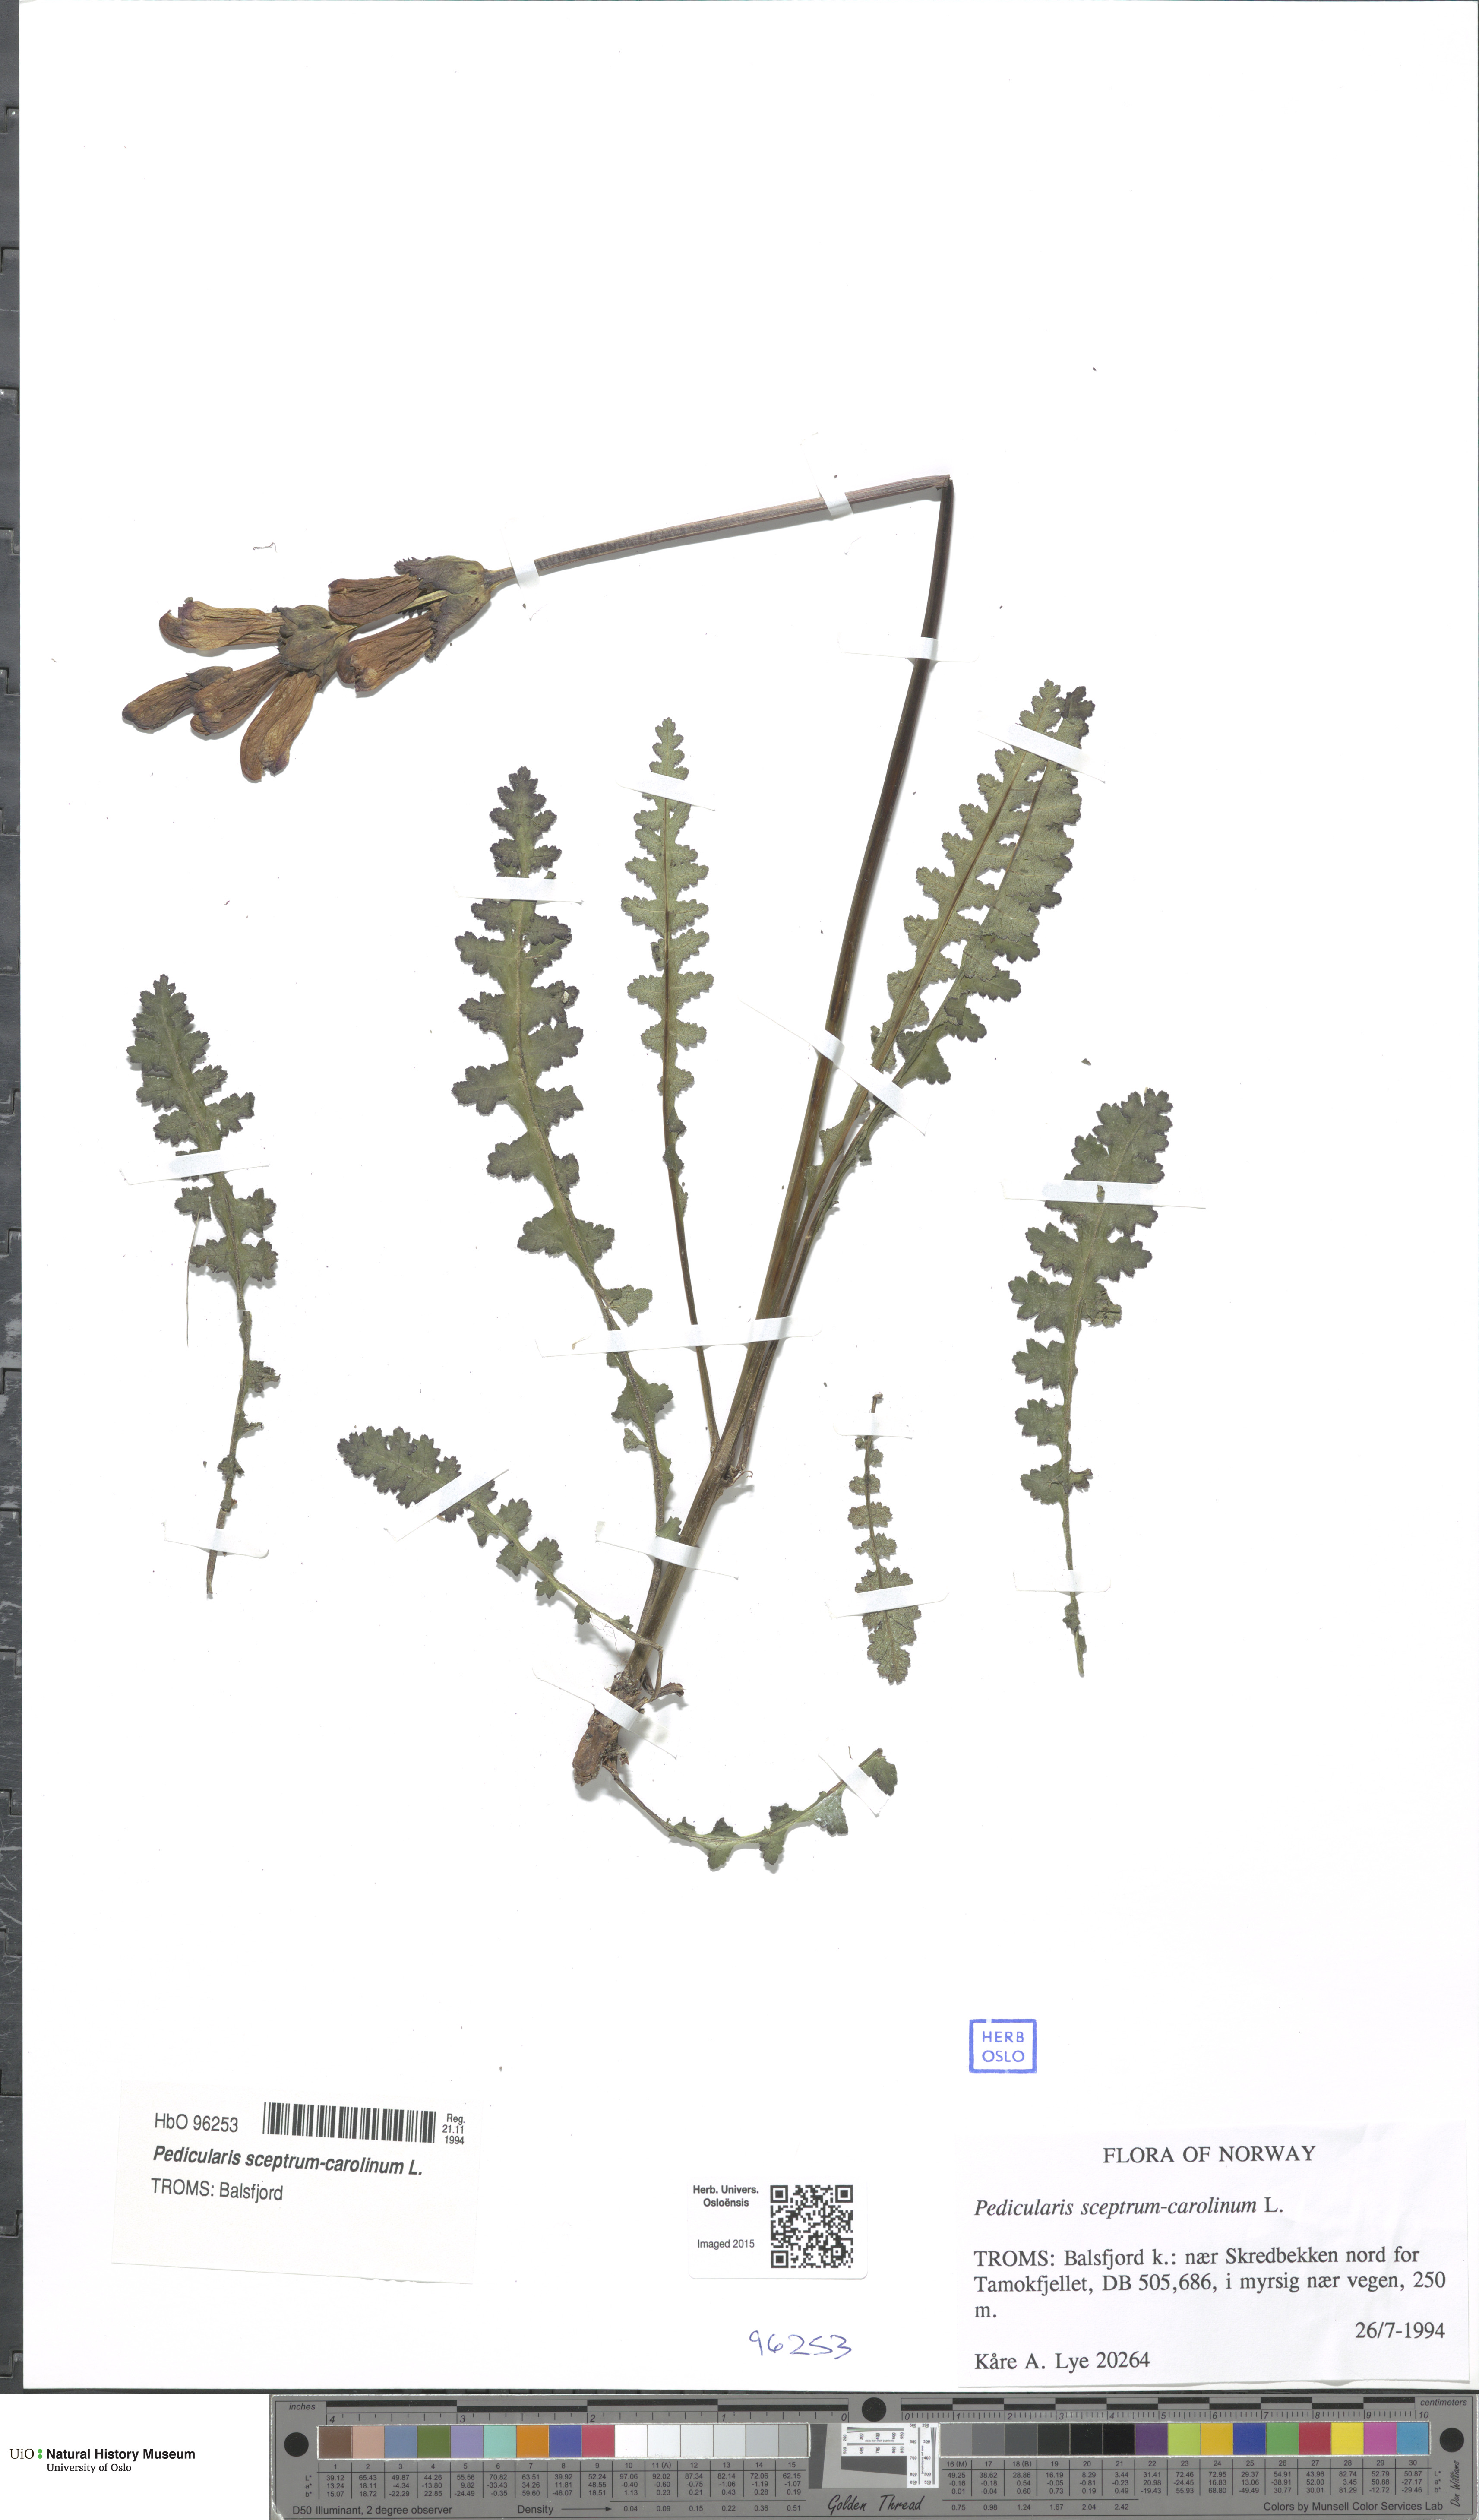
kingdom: Plantae
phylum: Tracheophyta
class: Magnoliopsida
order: Lamiales
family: Orobanchaceae
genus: Pedicularis
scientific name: Pedicularis sceptrum-carolinum
